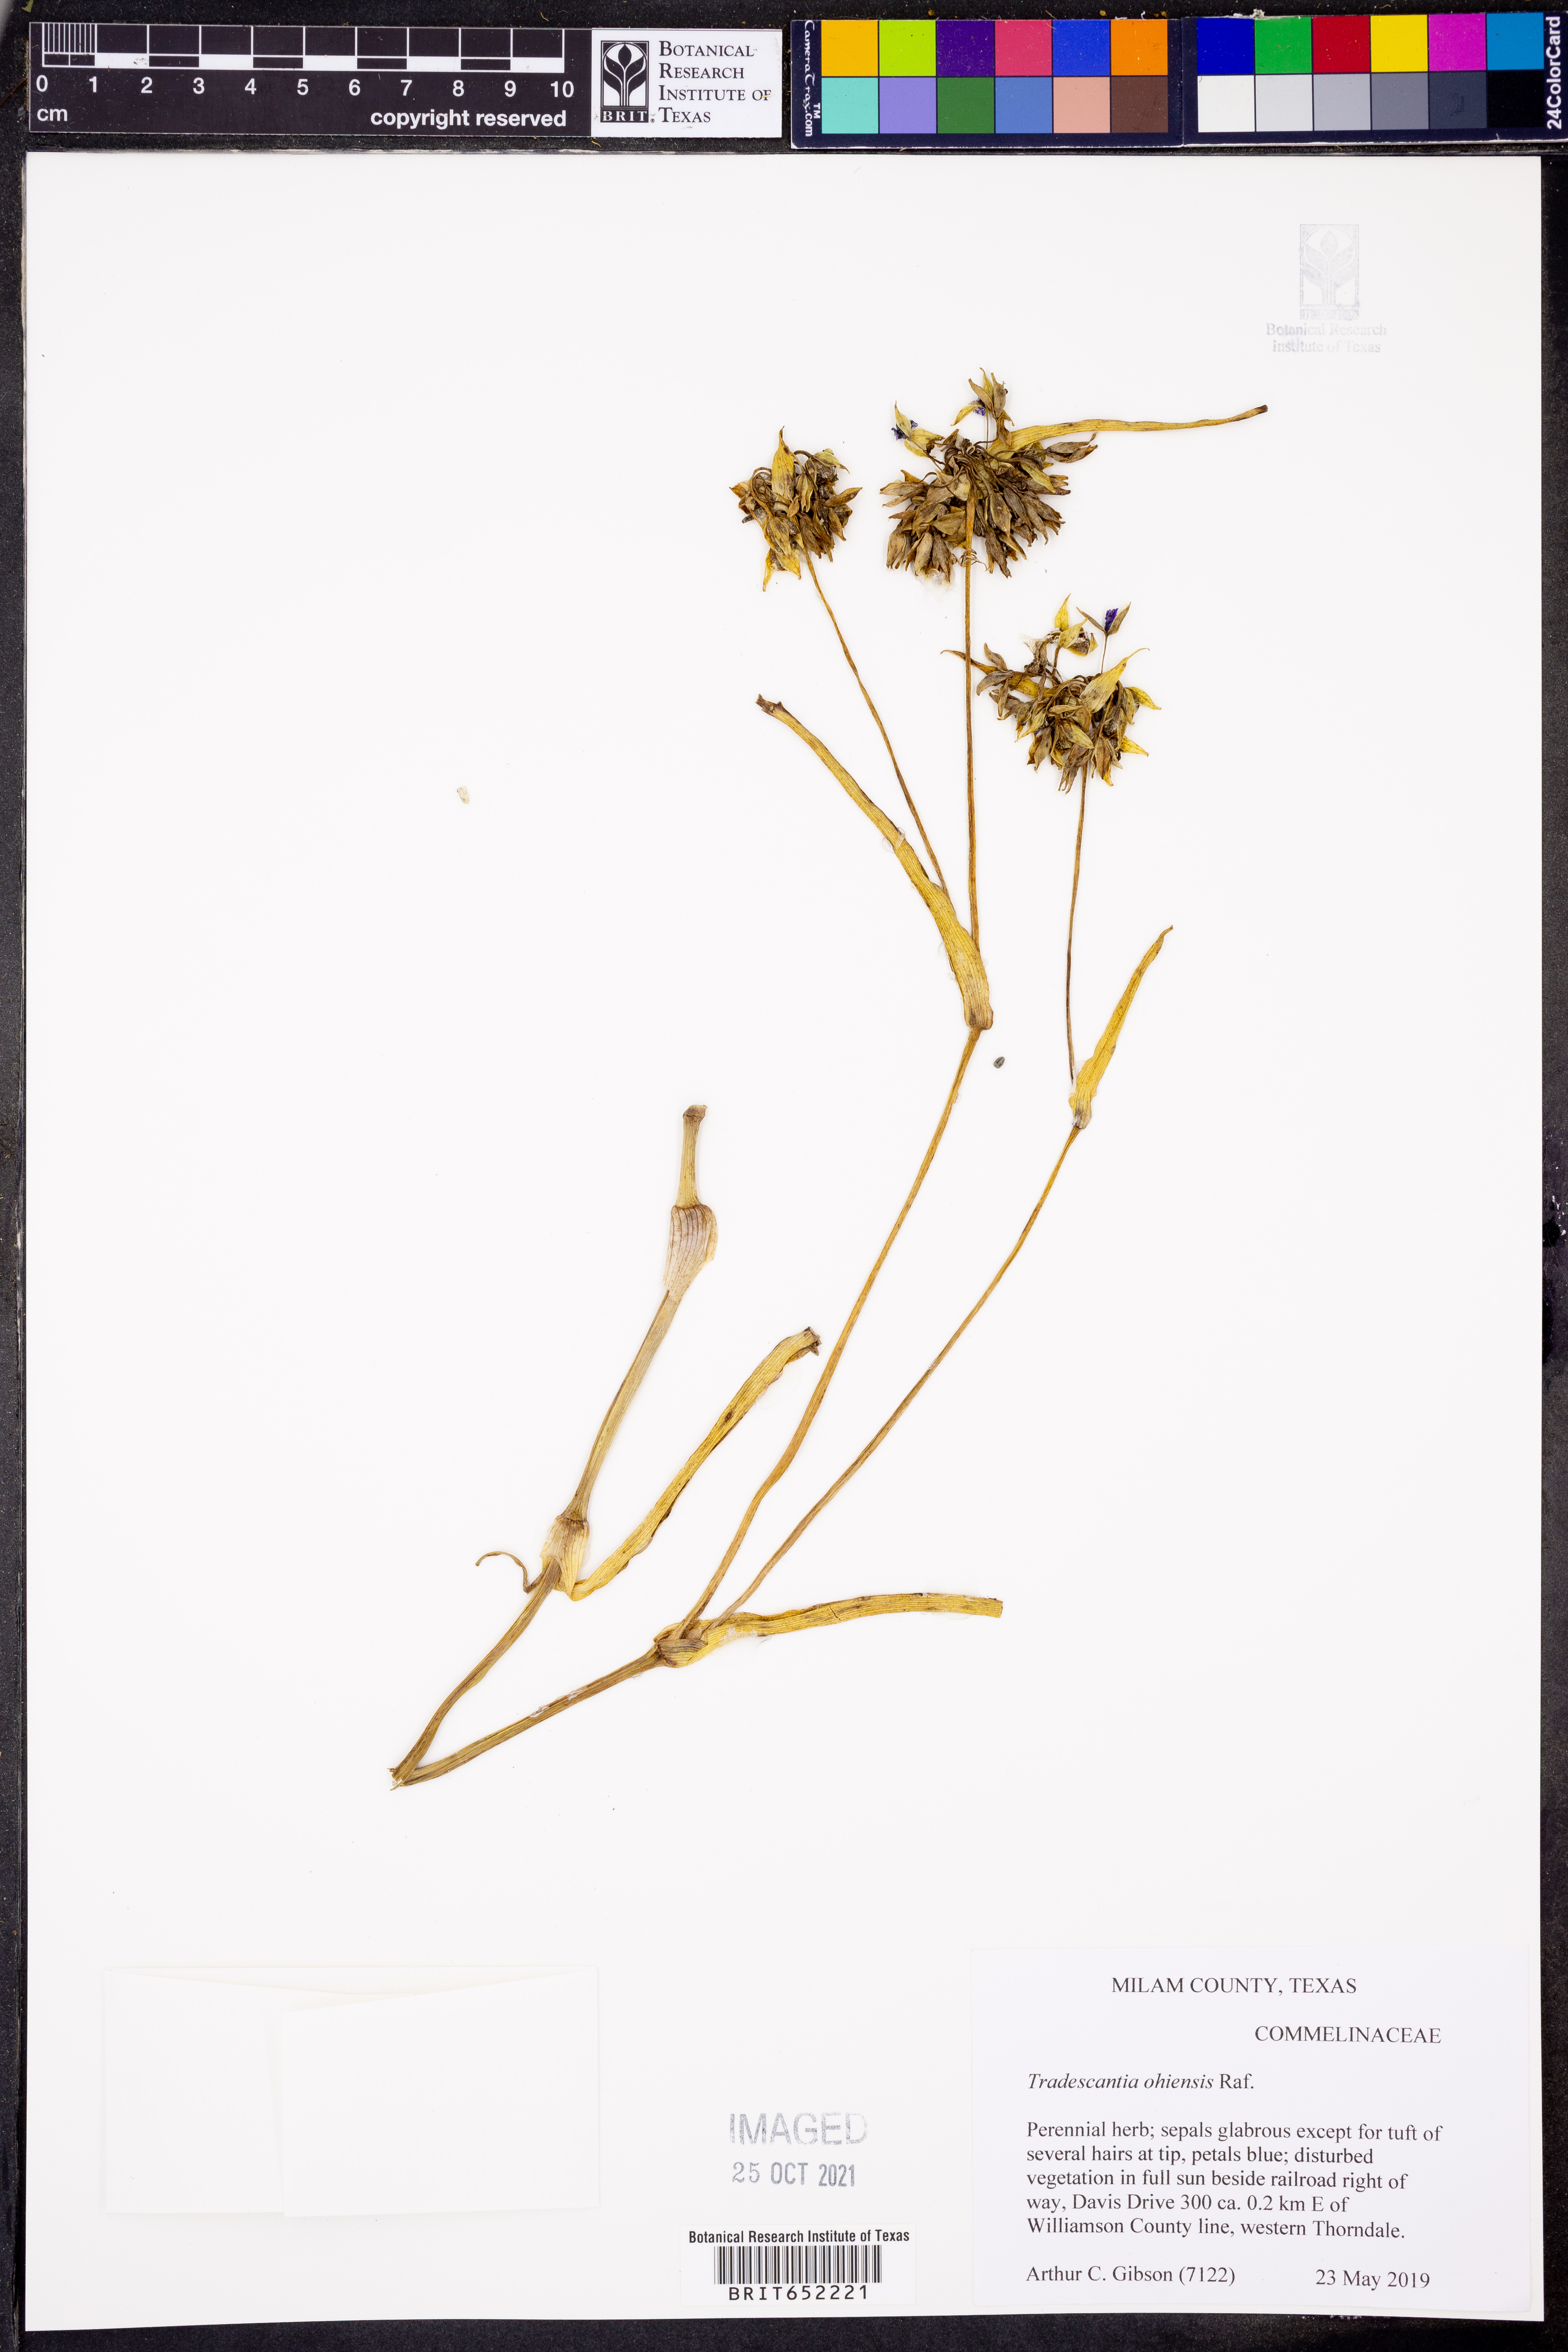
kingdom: Plantae
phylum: Tracheophyta
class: Liliopsida
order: Commelinales
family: Commelinaceae
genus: Tradescantia
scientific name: Tradescantia ohiensis
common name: Ohio spiderwort
